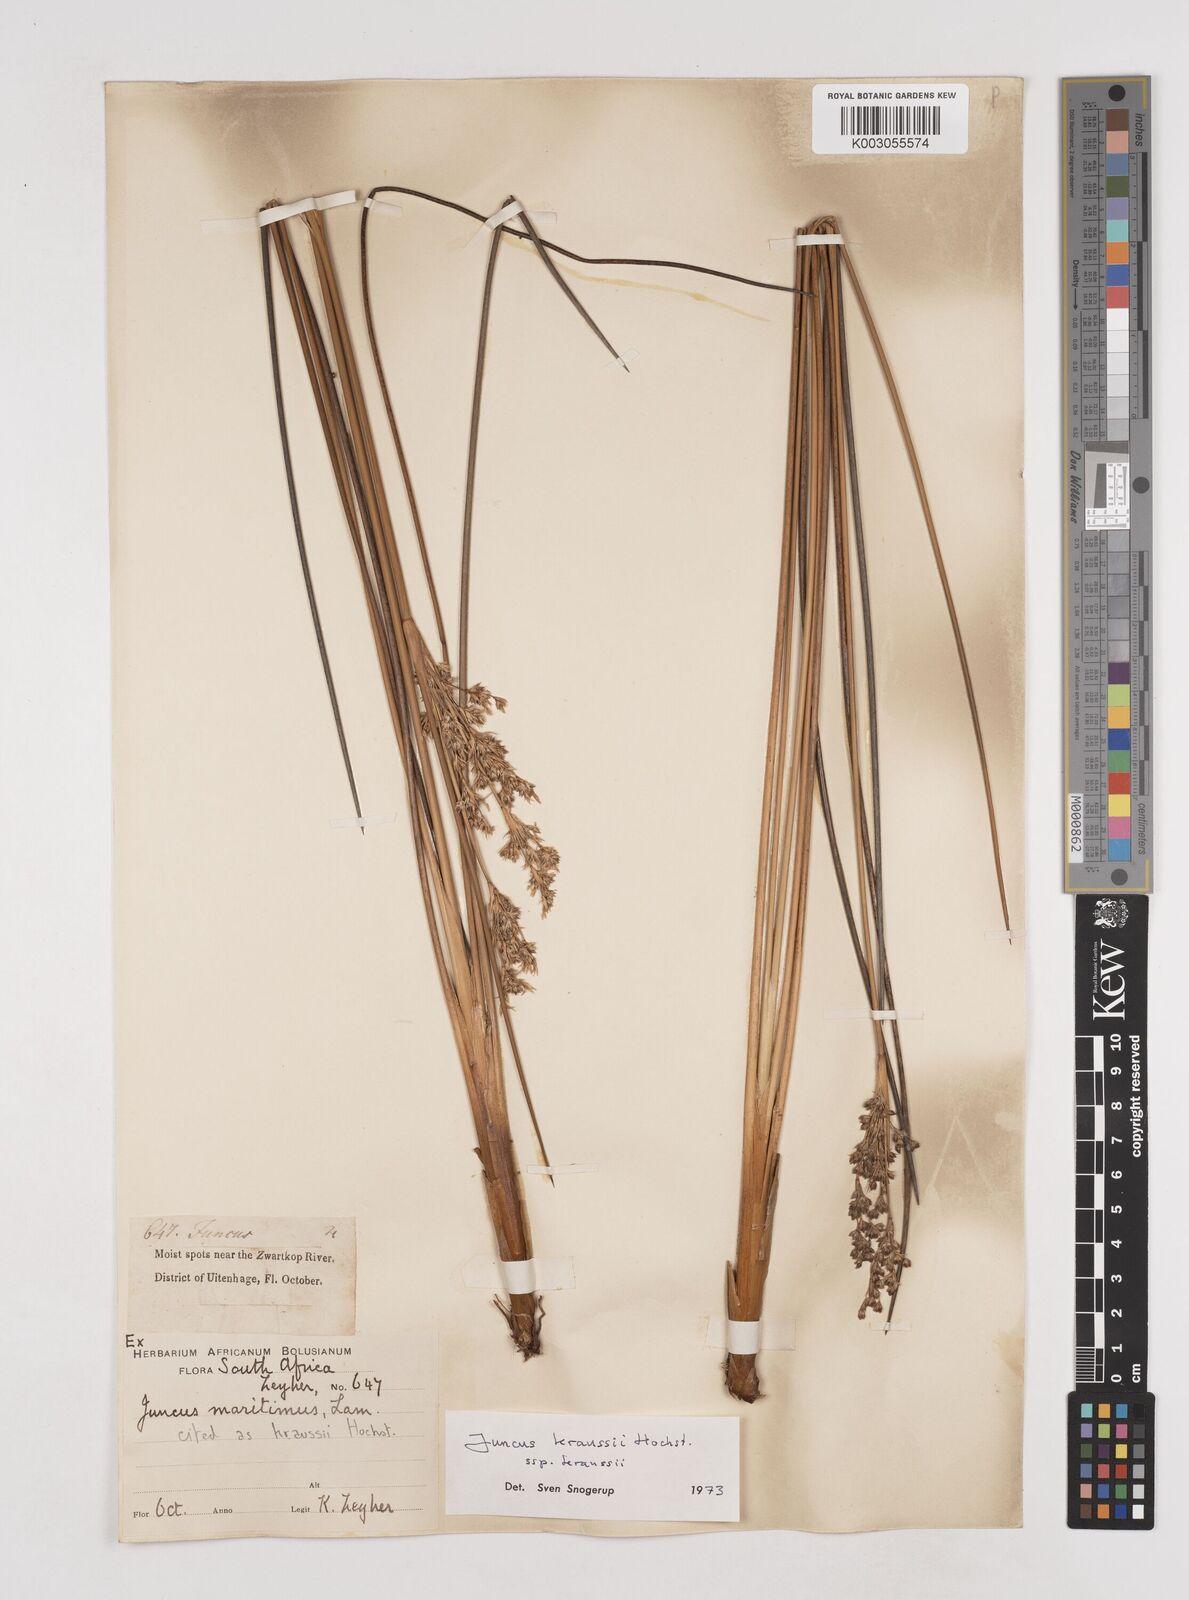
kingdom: Plantae
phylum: Tracheophyta
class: Liliopsida
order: Poales
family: Juncaceae
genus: Juncus
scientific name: Juncus kraussii
